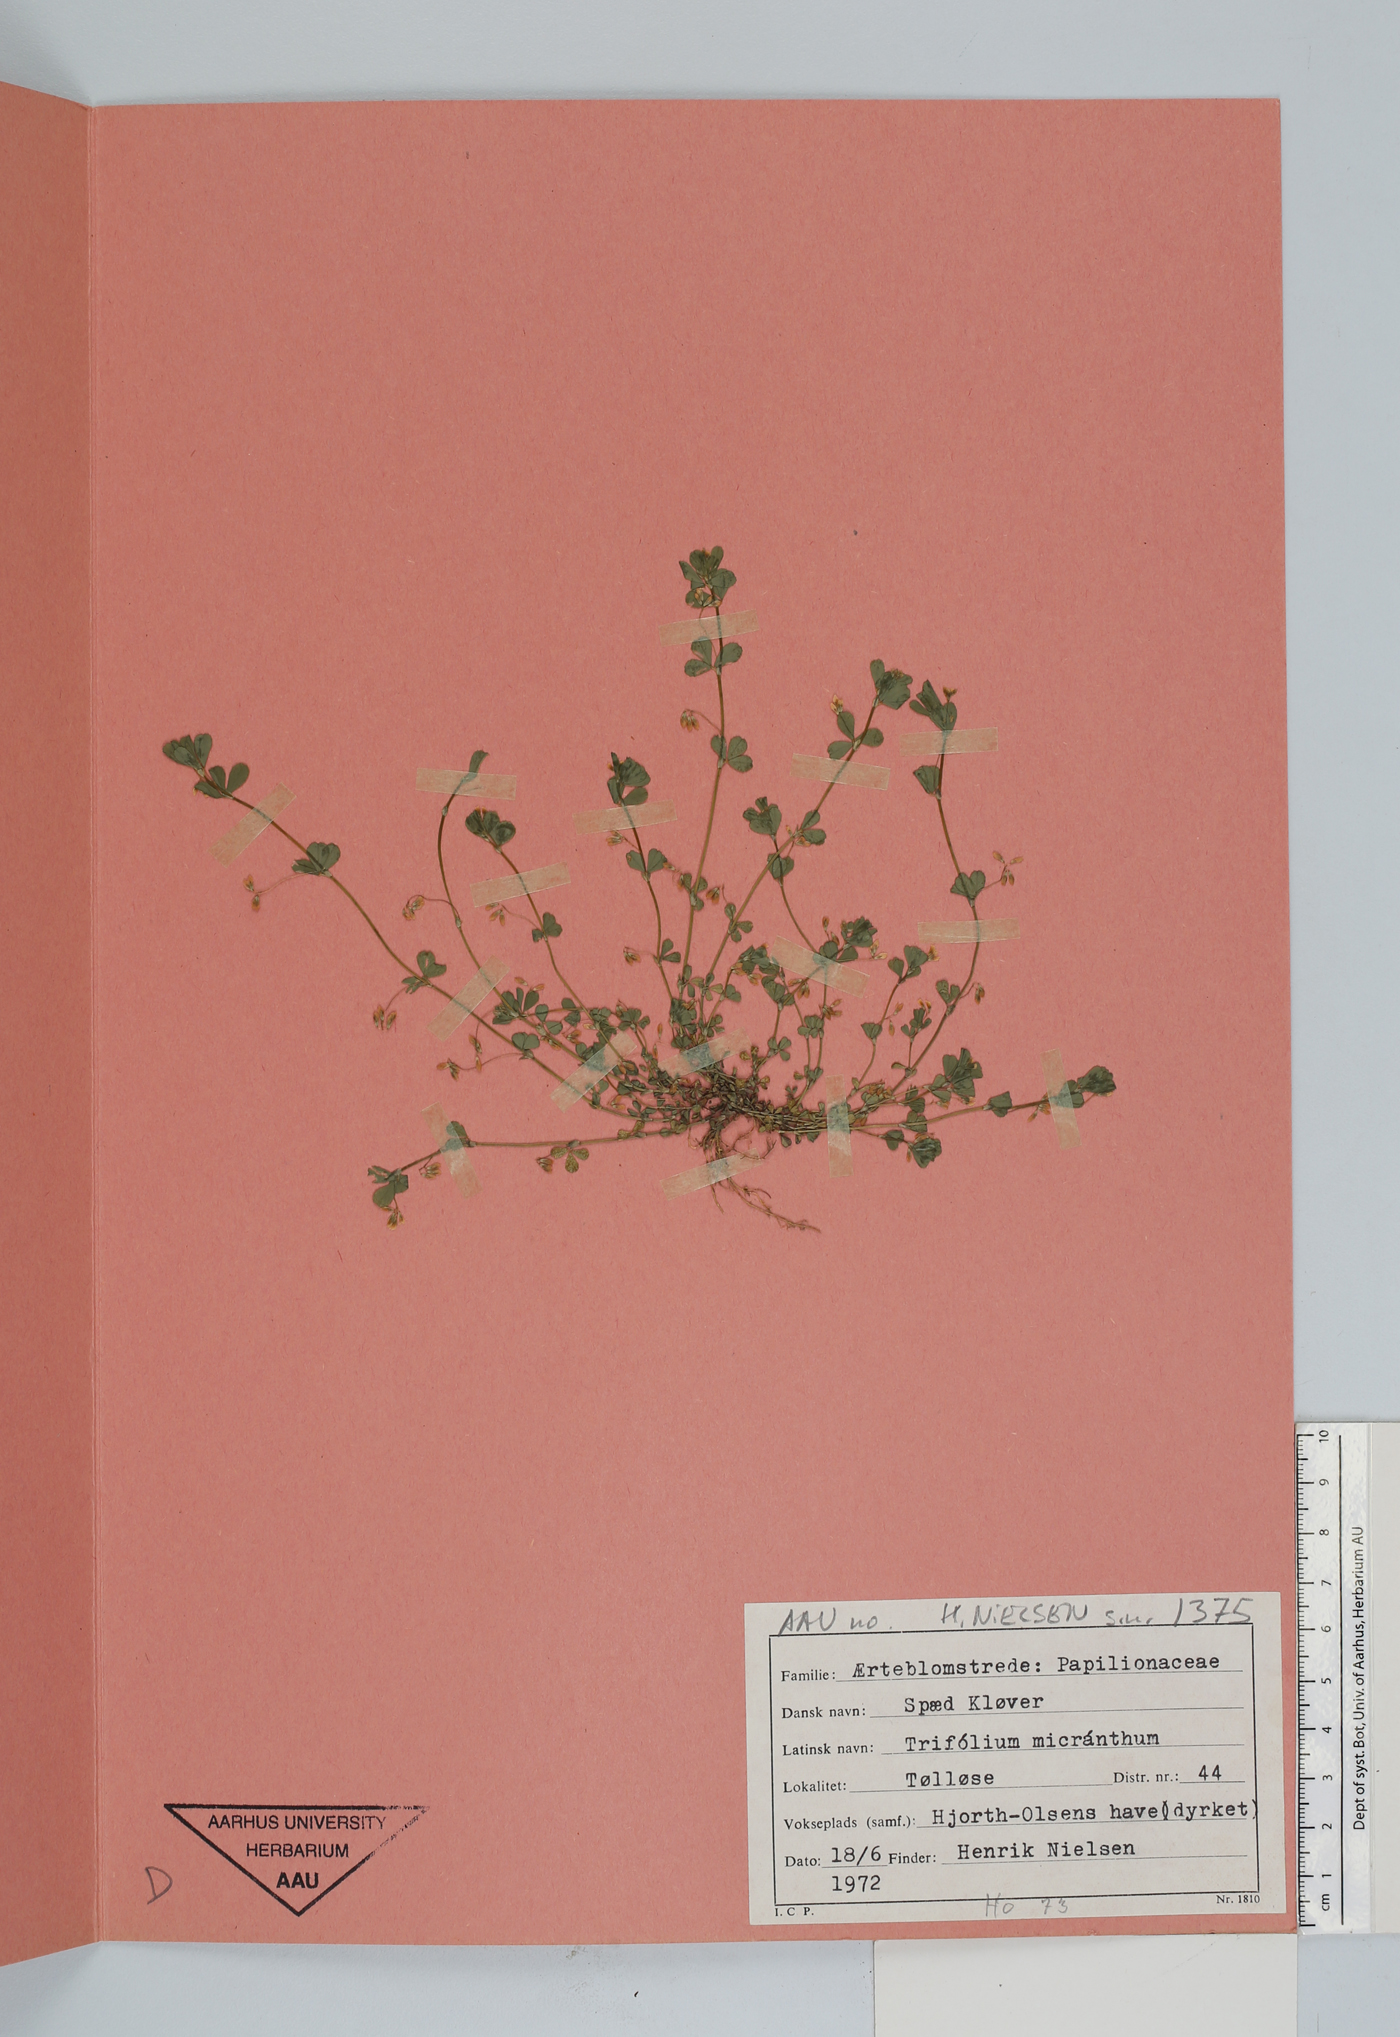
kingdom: Plantae
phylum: Tracheophyta
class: Magnoliopsida
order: Fabales
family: Fabaceae
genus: Trifolium
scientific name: Trifolium dubium
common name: Suckling clover
